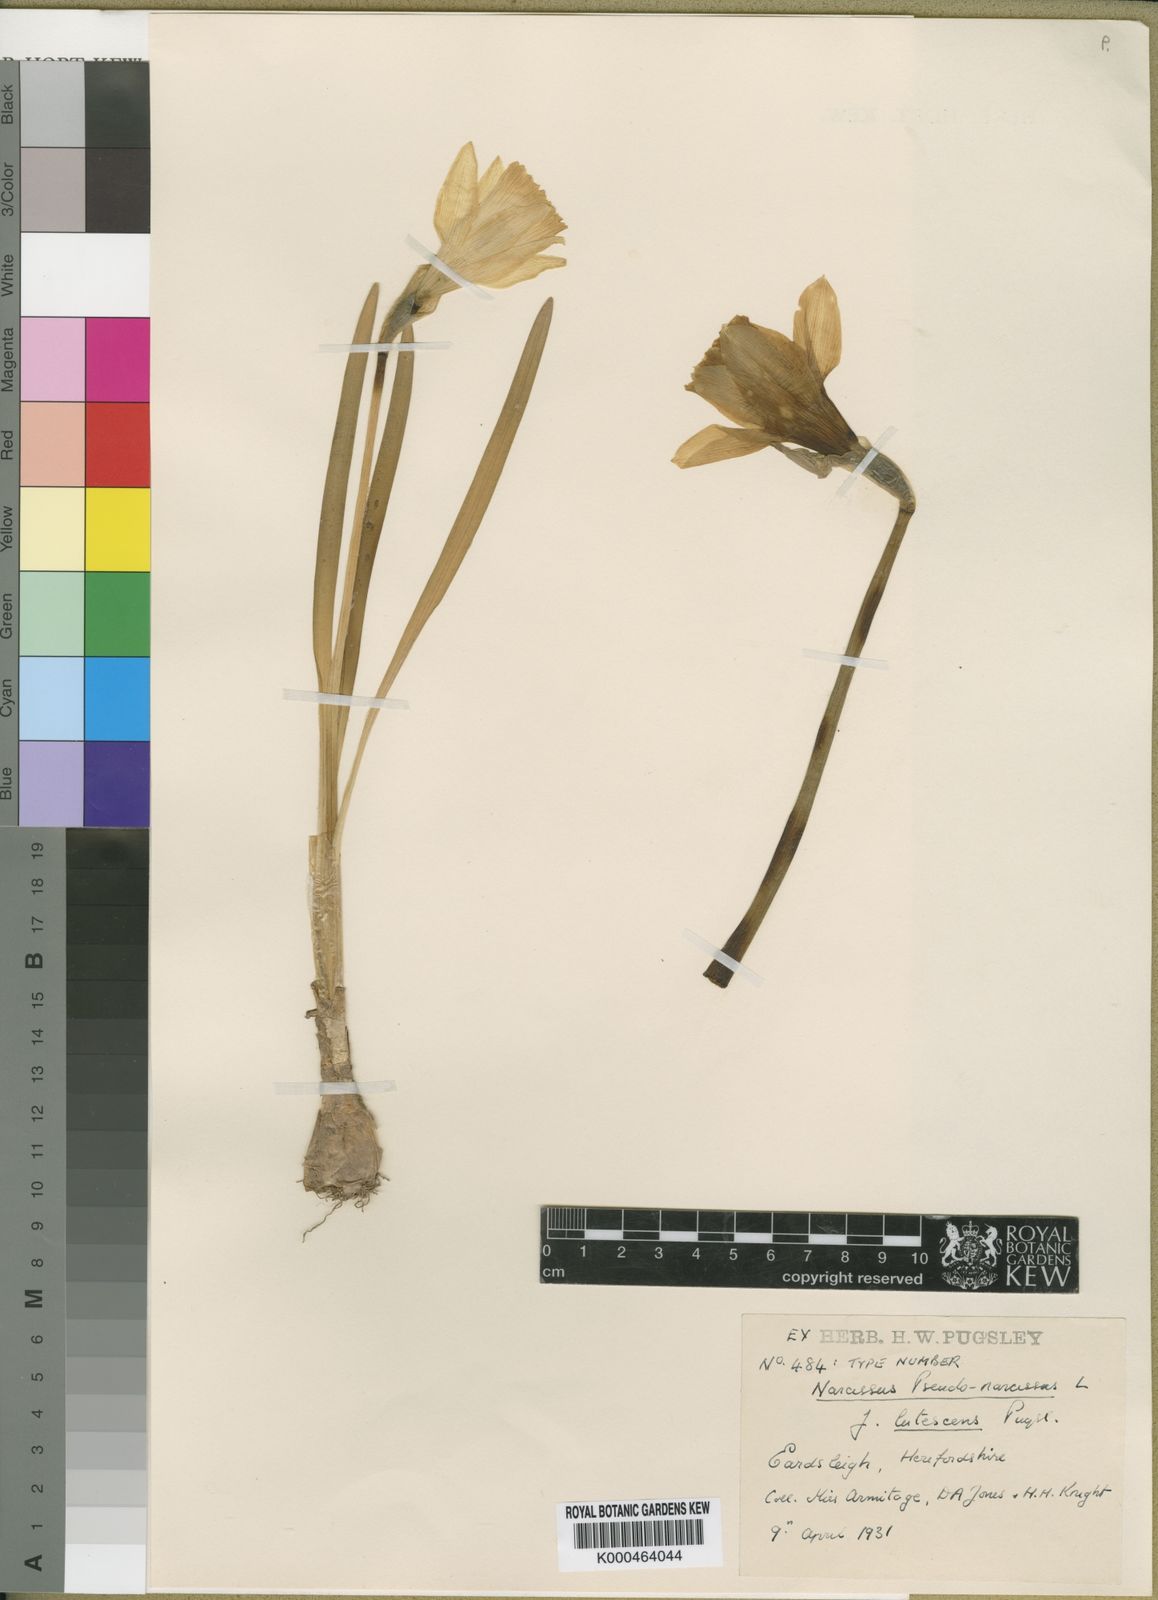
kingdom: Plantae
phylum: Tracheophyta
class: Liliopsida
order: Asparagales
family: Amaryllidaceae
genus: Narcissus
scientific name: Narcissus pseudonarcissus
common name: Daffodil
